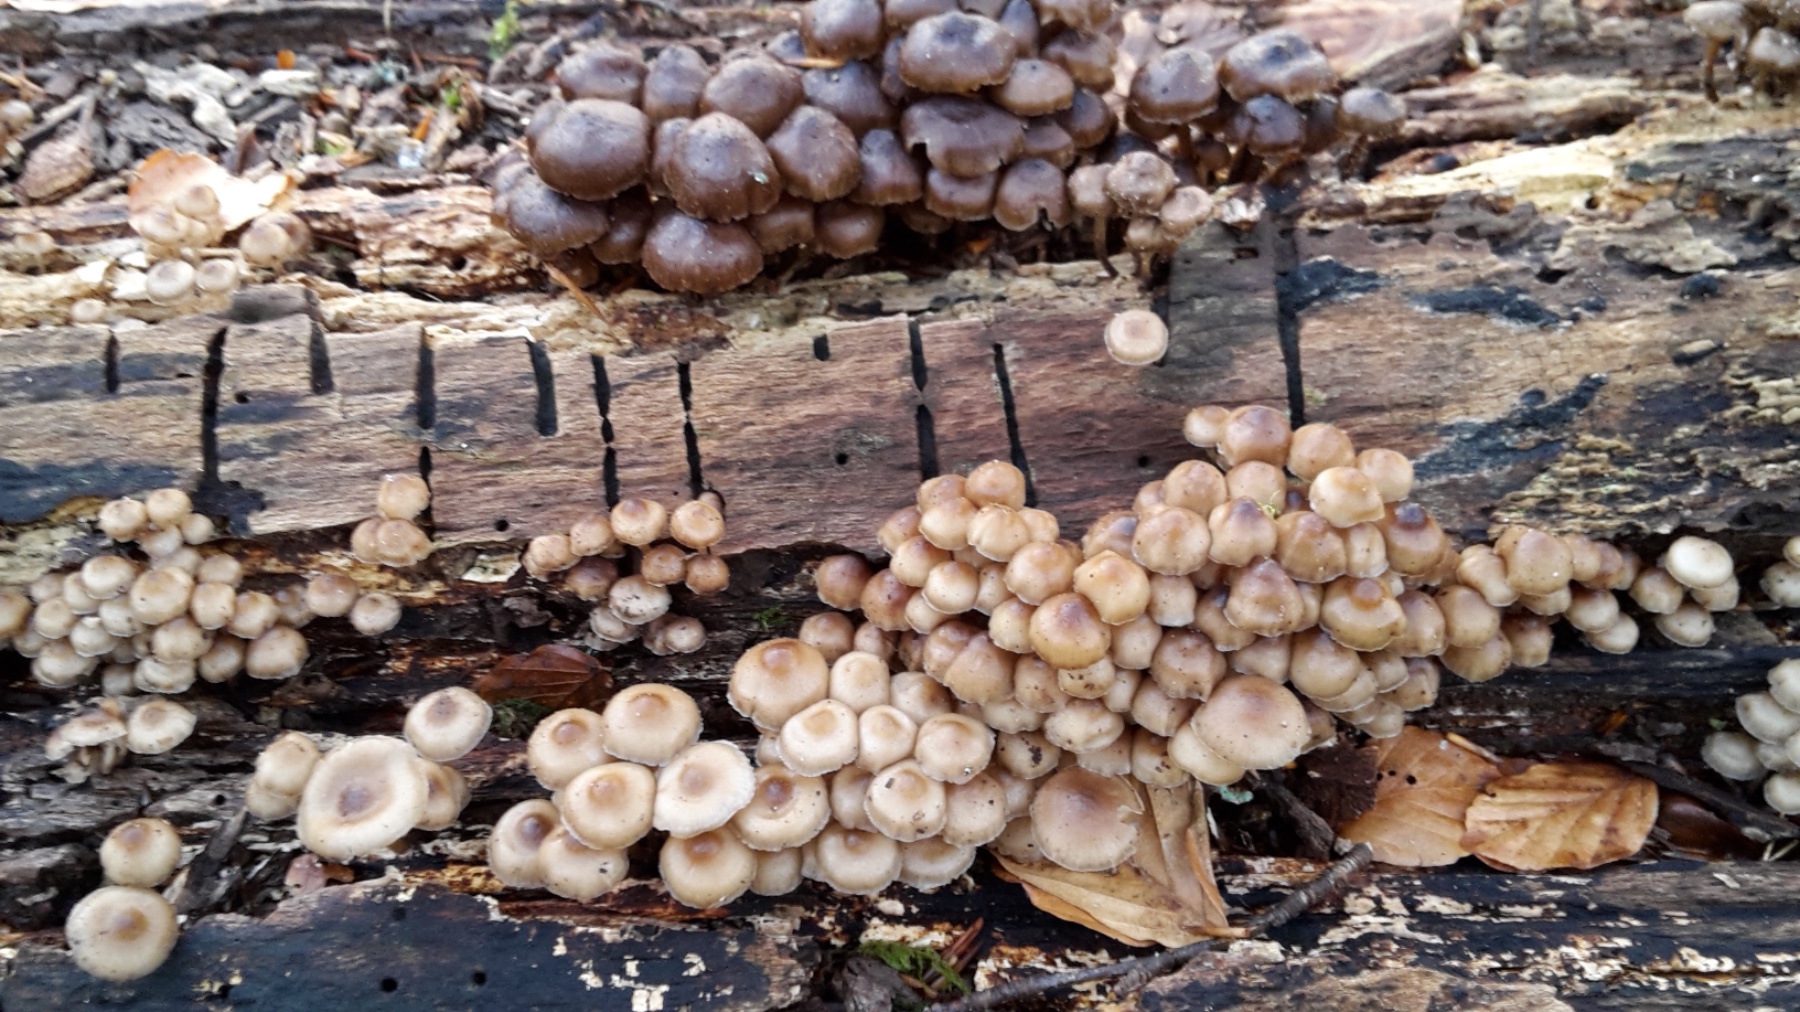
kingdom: Fungi
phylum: Basidiomycota
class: Agaricomycetes
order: Agaricales
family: Mycenaceae
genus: Mycena
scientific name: Mycena tintinnabulum
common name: vinter-huesvamp
